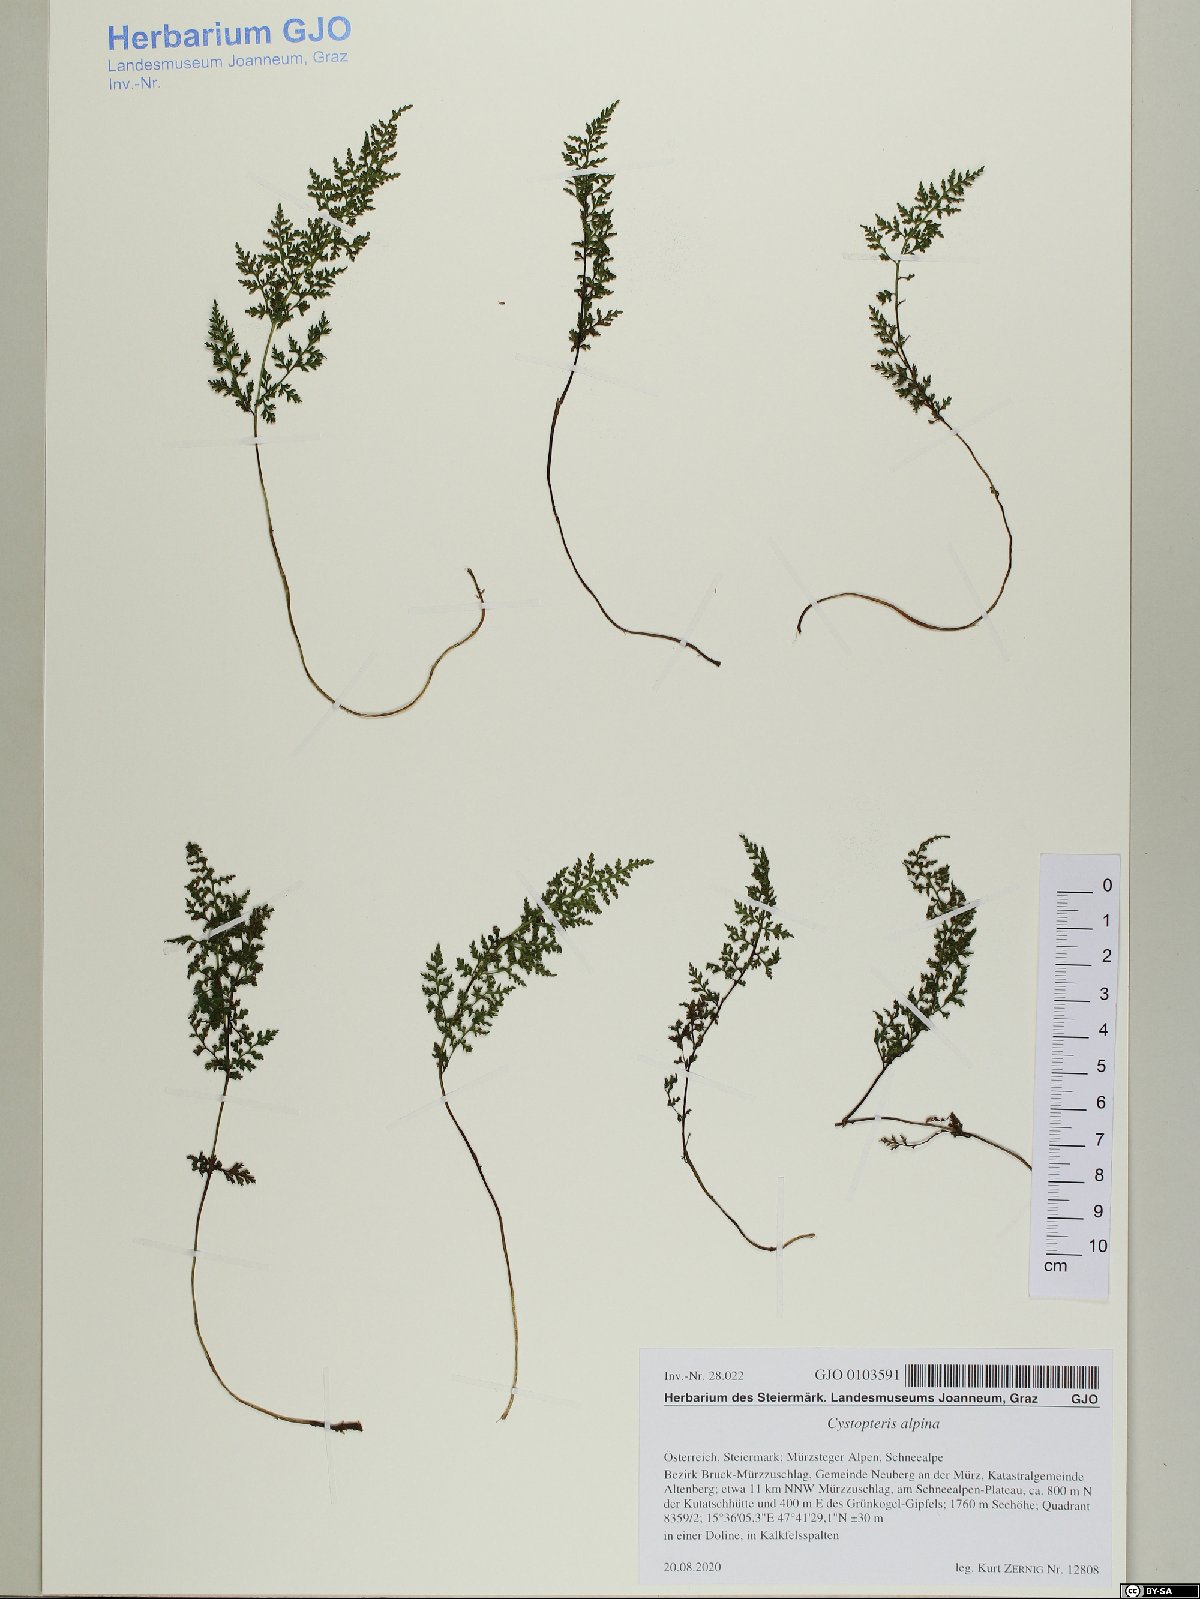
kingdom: Plantae
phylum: Tracheophyta
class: Polypodiopsida
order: Polypodiales
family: Cystopteridaceae
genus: Cystopteris
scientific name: Cystopteris alpina
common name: Alpine bladder-fern
